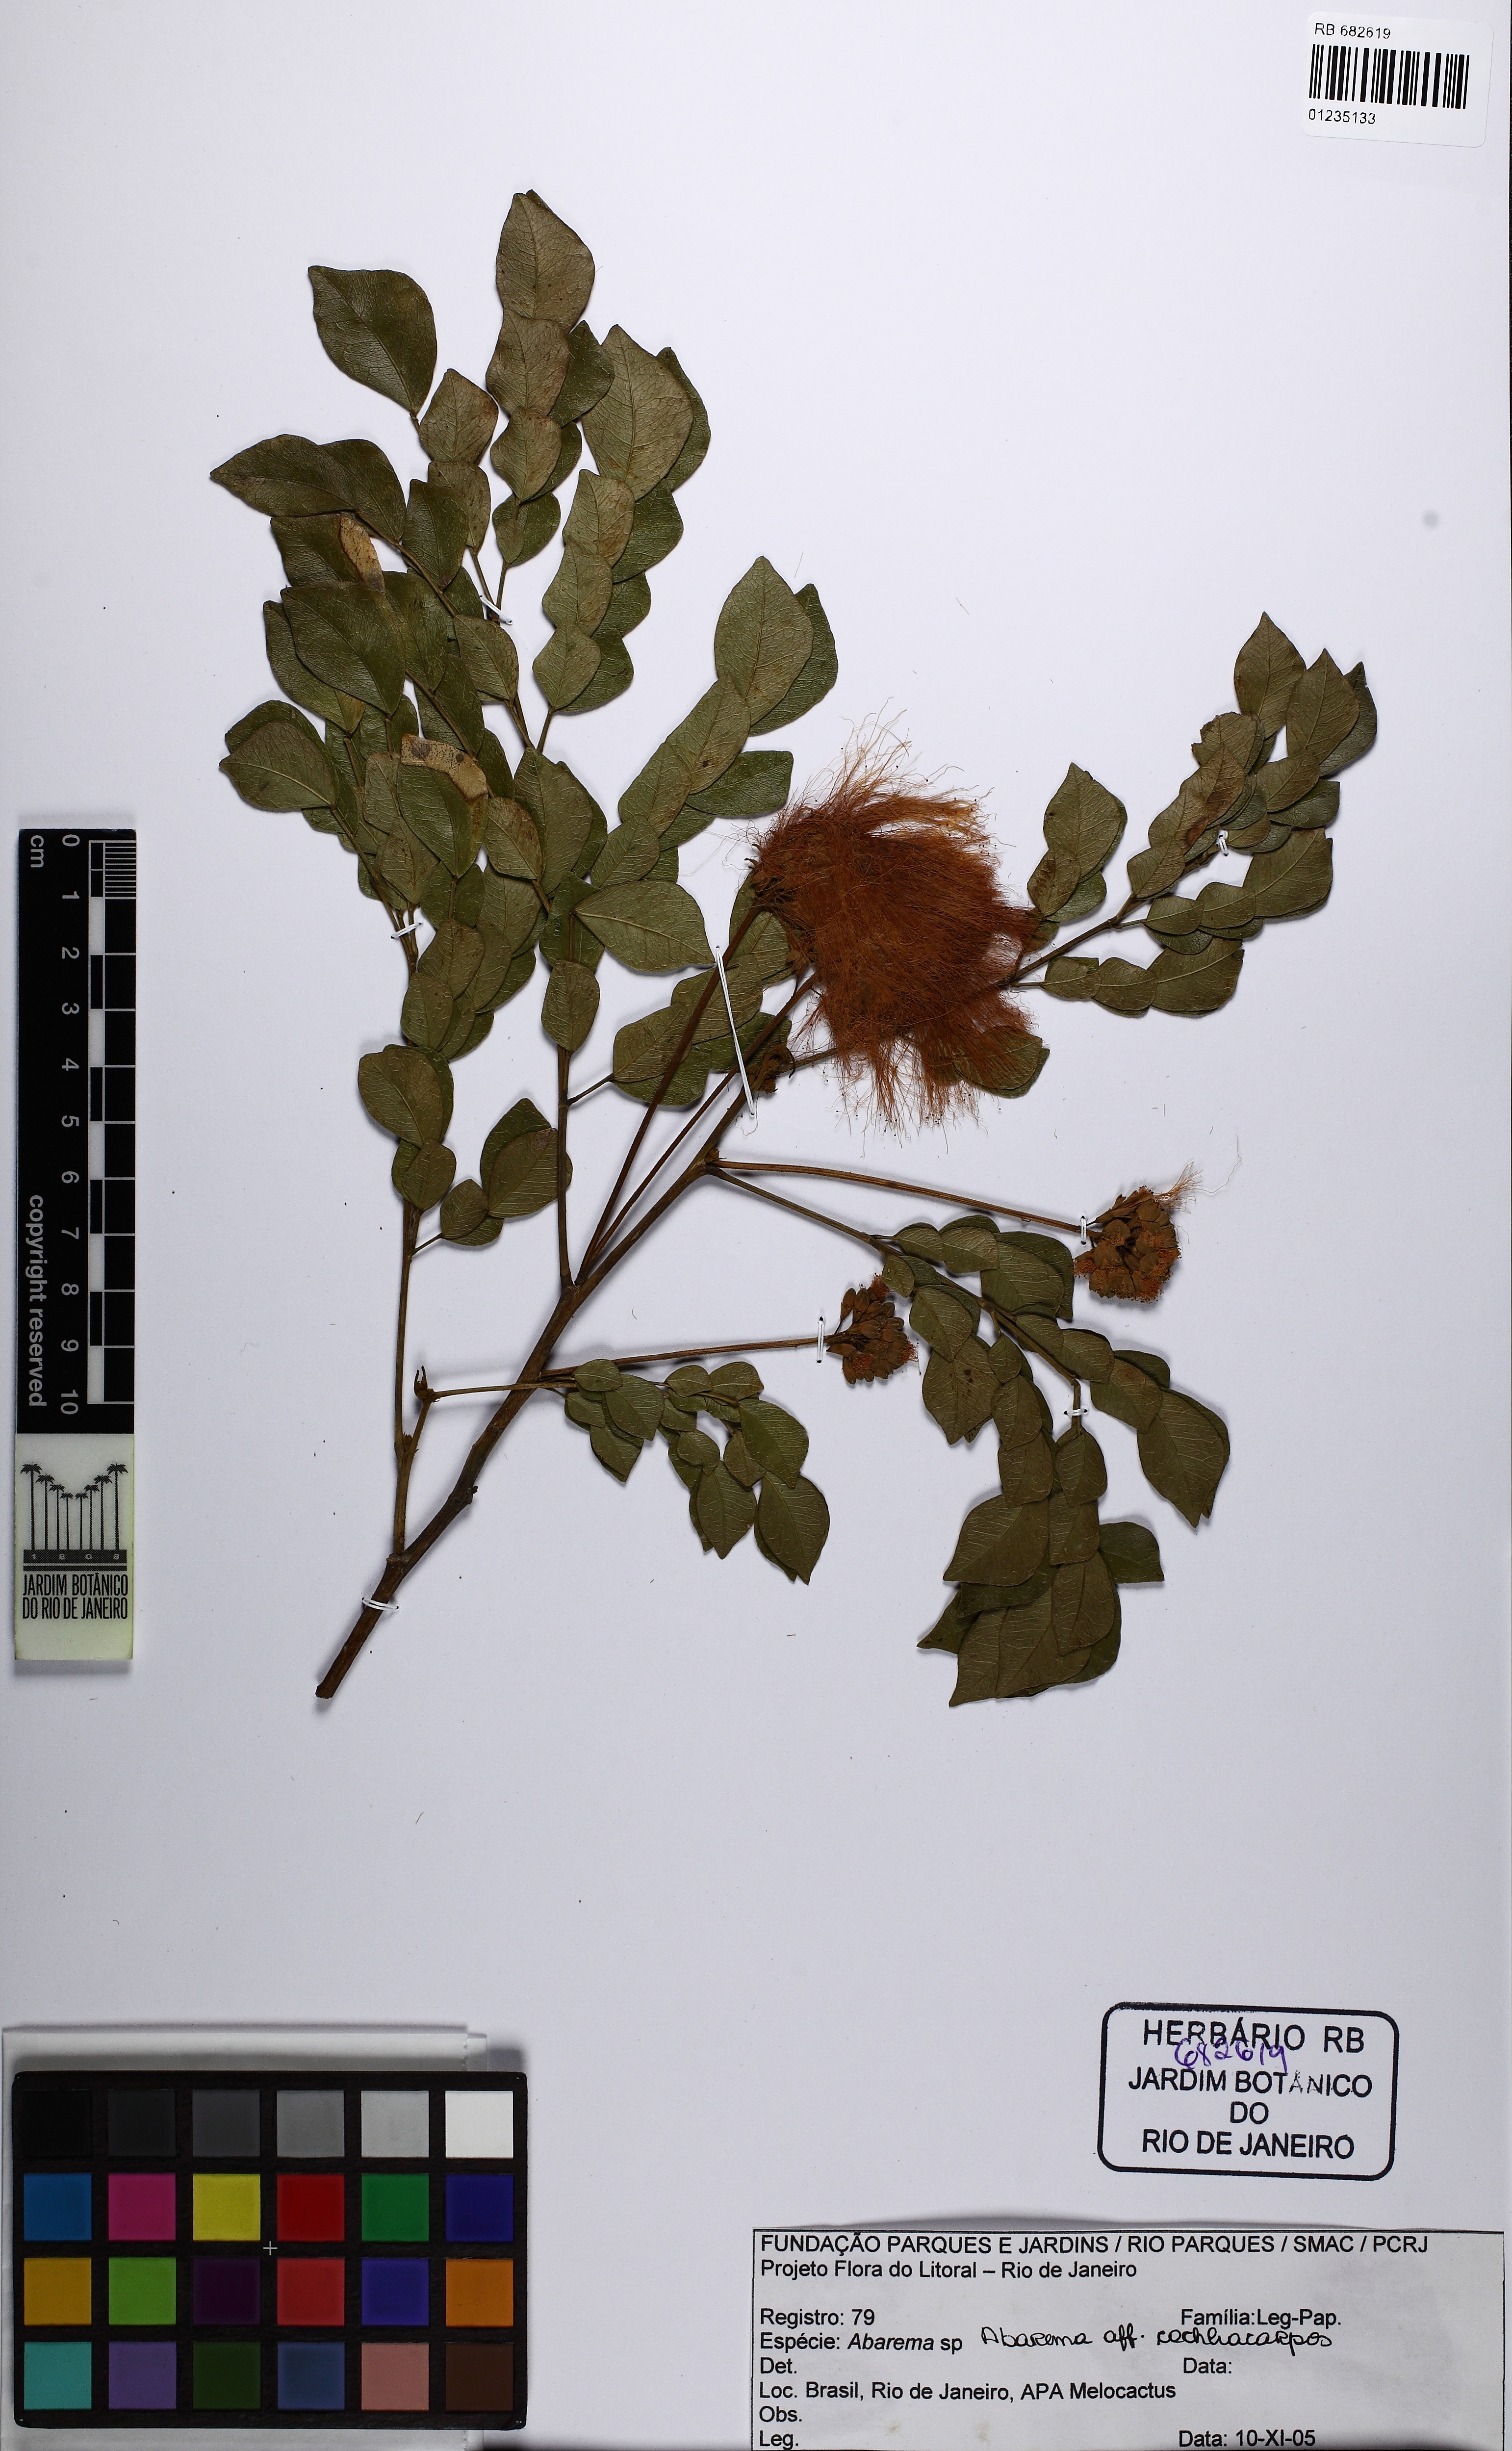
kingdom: Plantae
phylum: Tracheophyta
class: Magnoliopsida
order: Fabales
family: Fabaceae
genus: Abarema
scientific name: Abarema cochliacarpos
